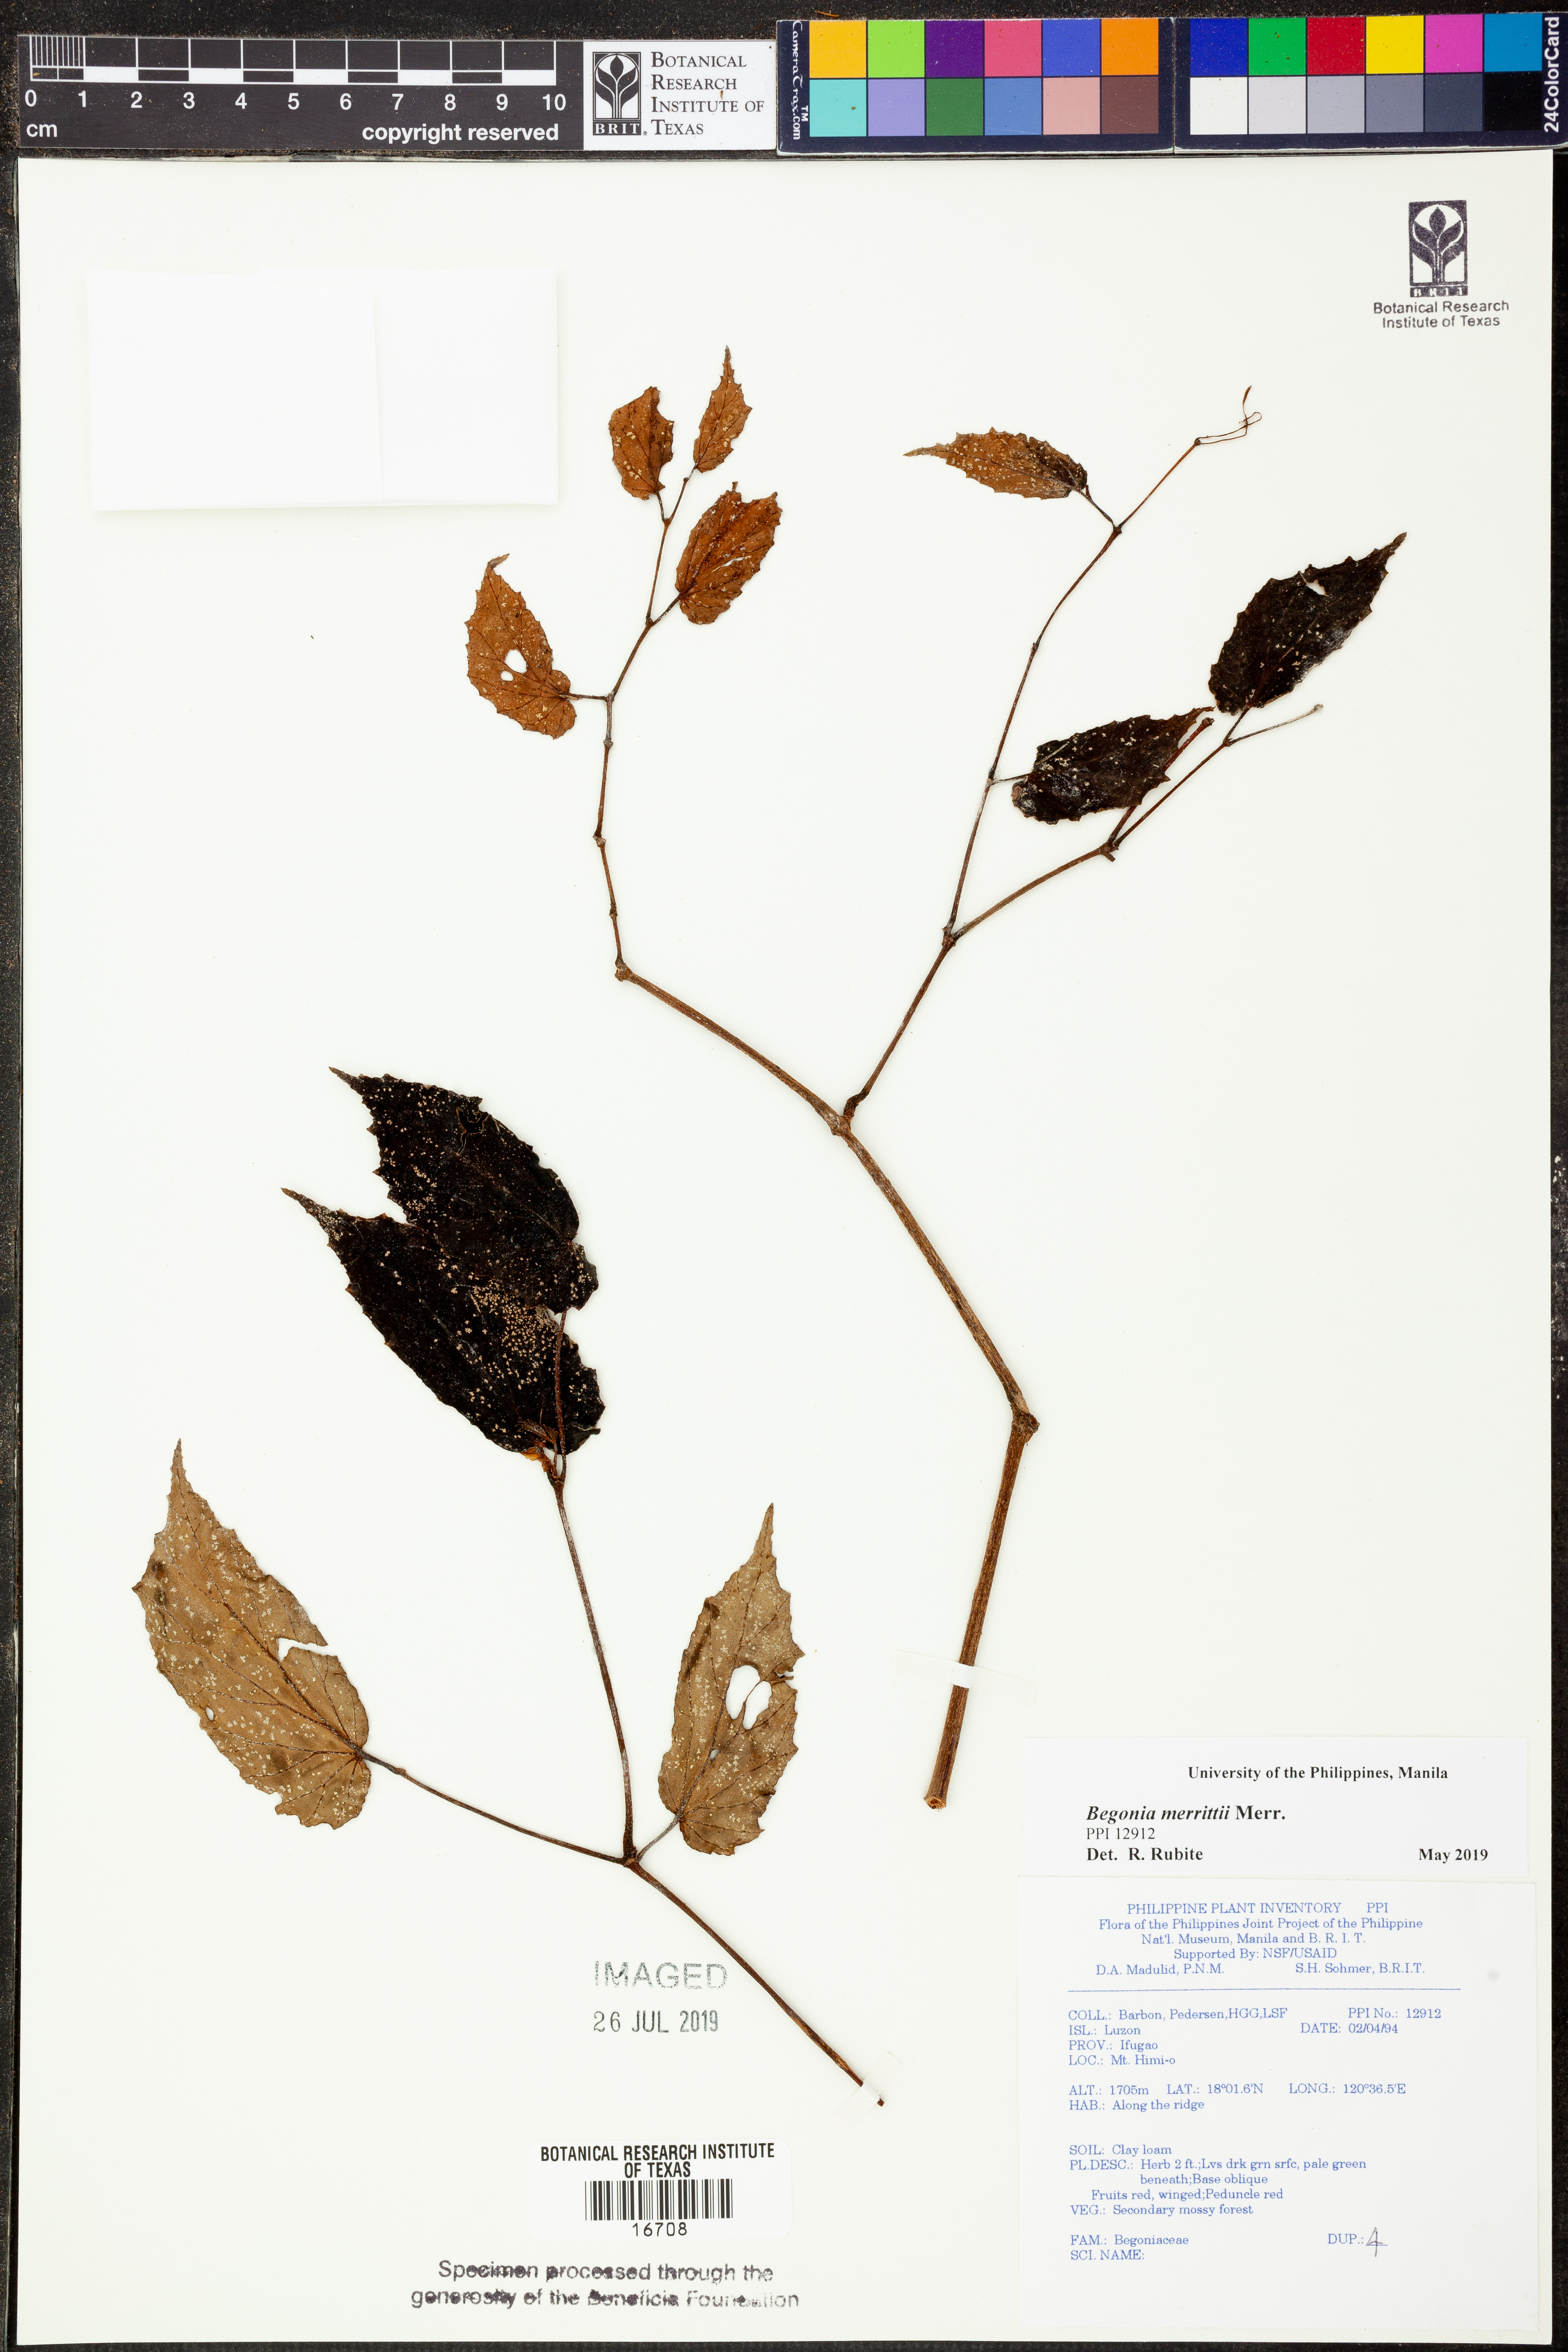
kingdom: Plantae
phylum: Tracheophyta
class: Magnoliopsida
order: Cucurbitales
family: Begoniaceae
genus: Begonia
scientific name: Begonia merrittii
